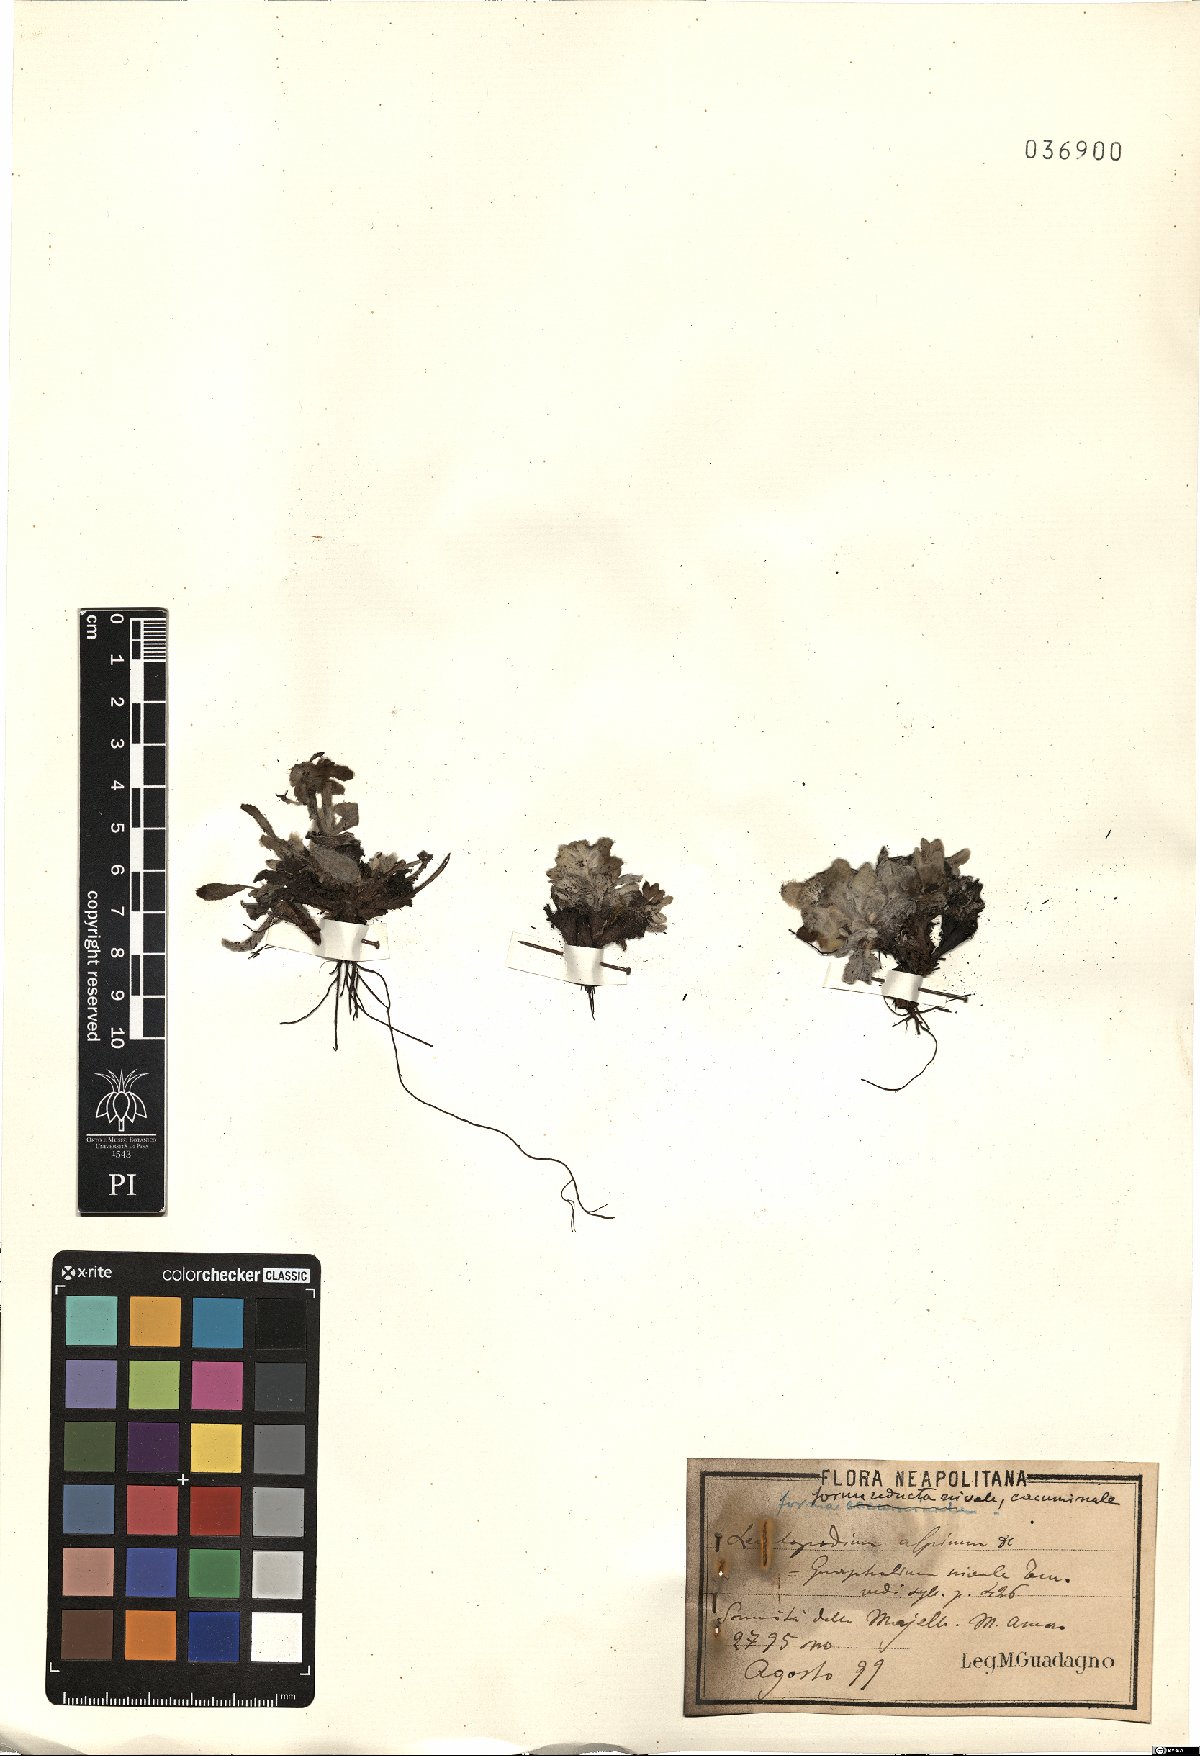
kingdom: Plantae
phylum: Tracheophyta
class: Magnoliopsida
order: Asterales
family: Asteraceae
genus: Leontopodium
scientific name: Leontopodium nivale
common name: Edelweiss
